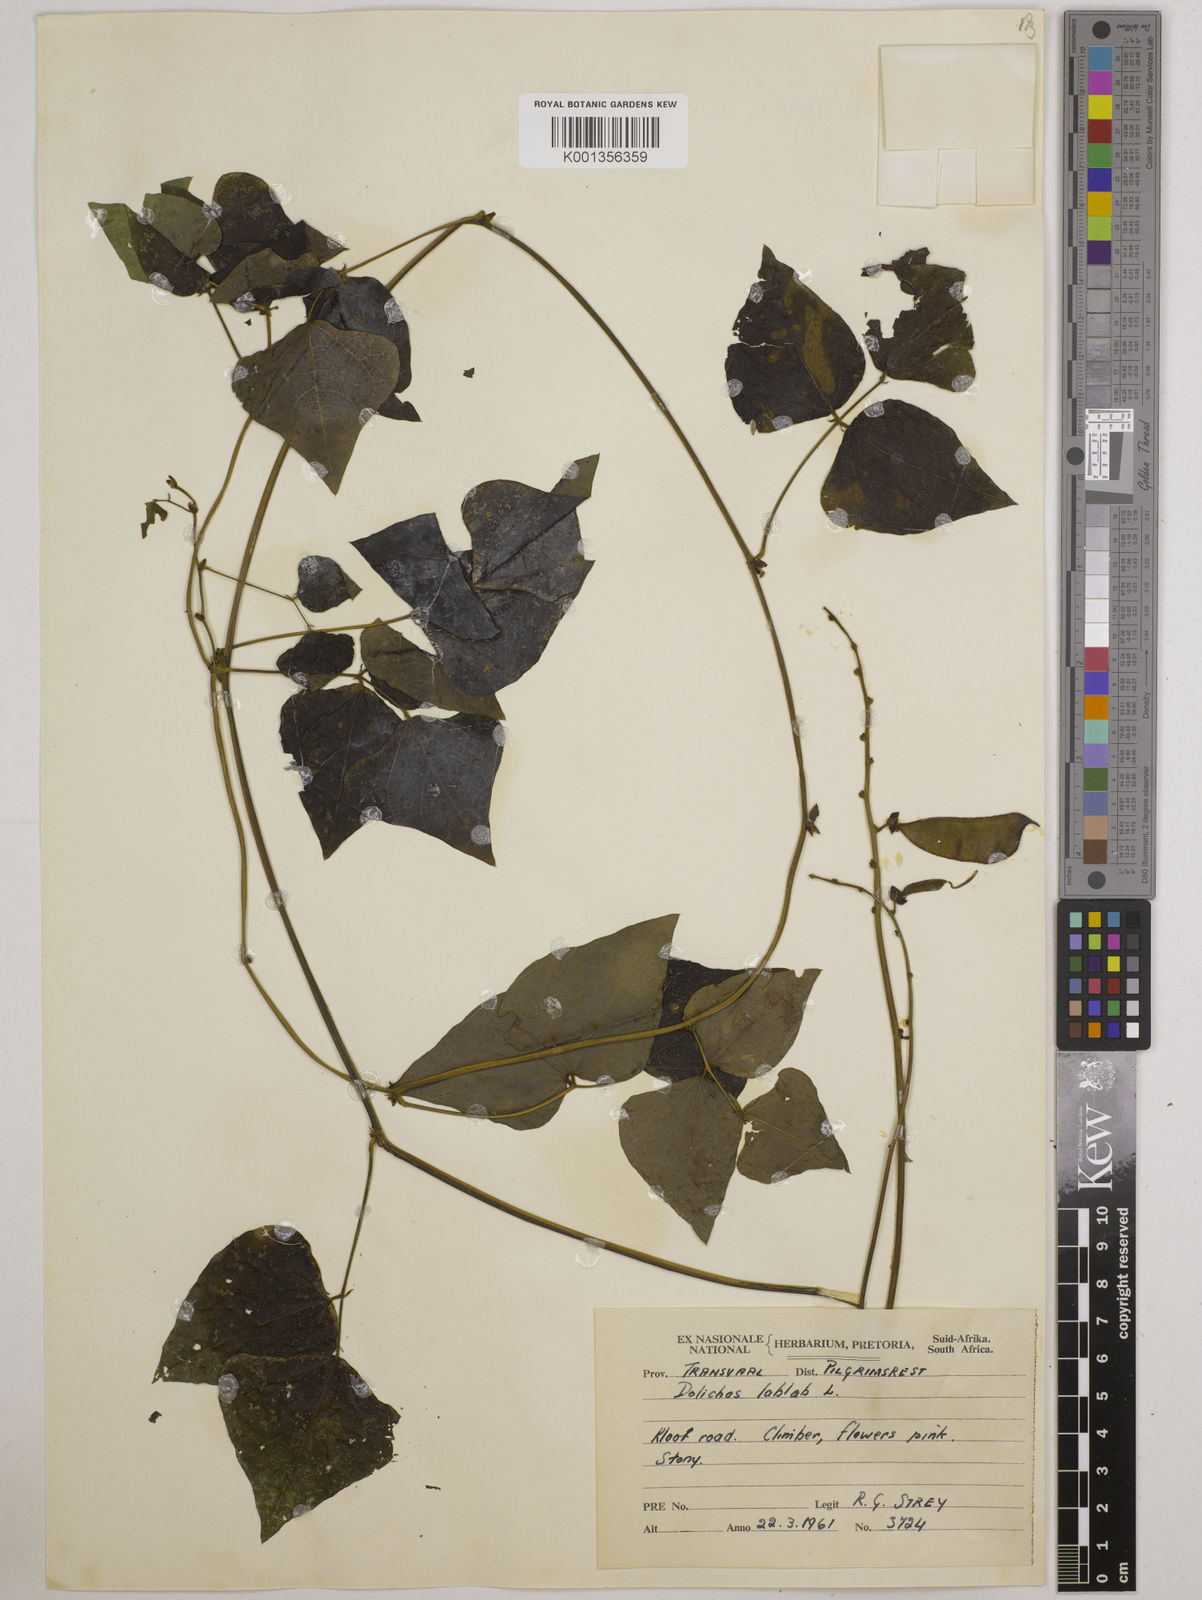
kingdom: Plantae
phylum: Tracheophyta
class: Magnoliopsida
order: Fabales
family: Fabaceae
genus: Lablab
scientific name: Lablab purpureus
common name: Lablab-bean
